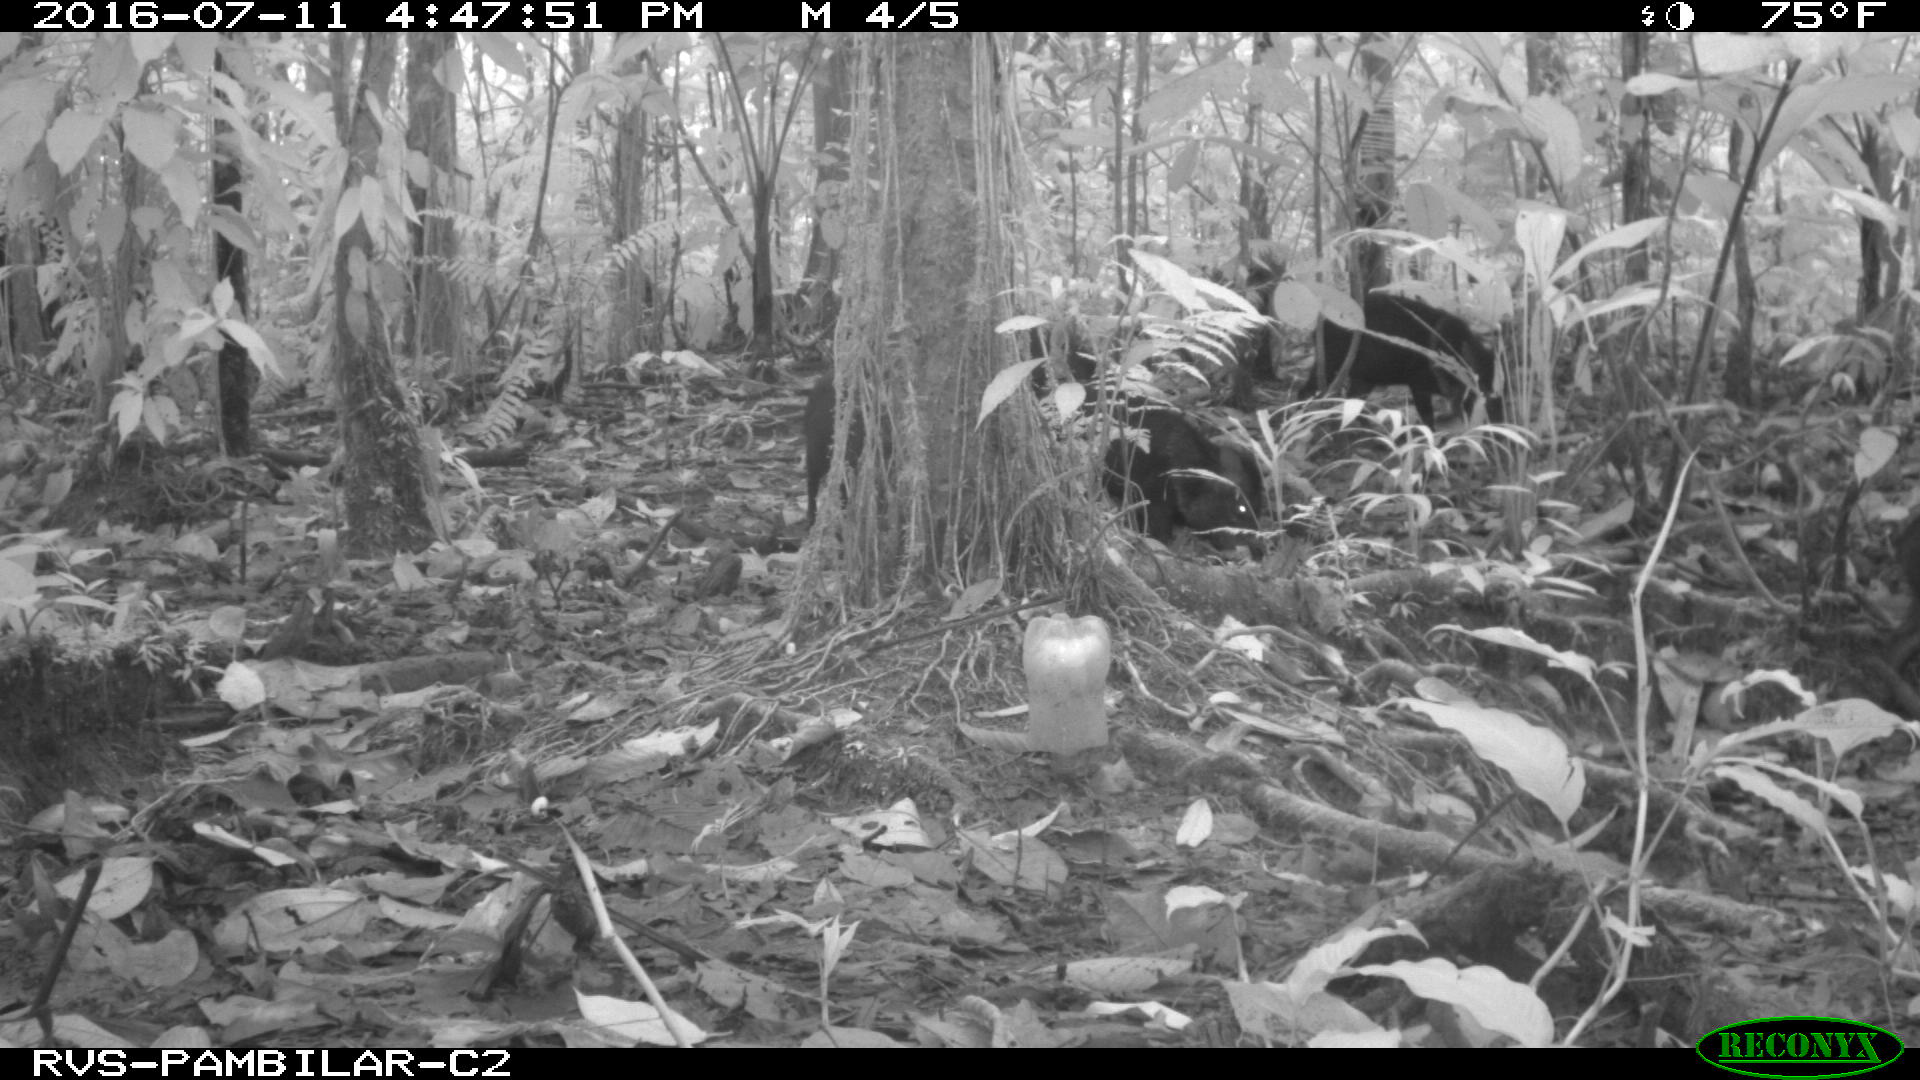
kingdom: Animalia
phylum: Chordata
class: Mammalia
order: Artiodactyla
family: Tayassuidae
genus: Pecari
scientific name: Pecari tajacu
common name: Collared peccary
